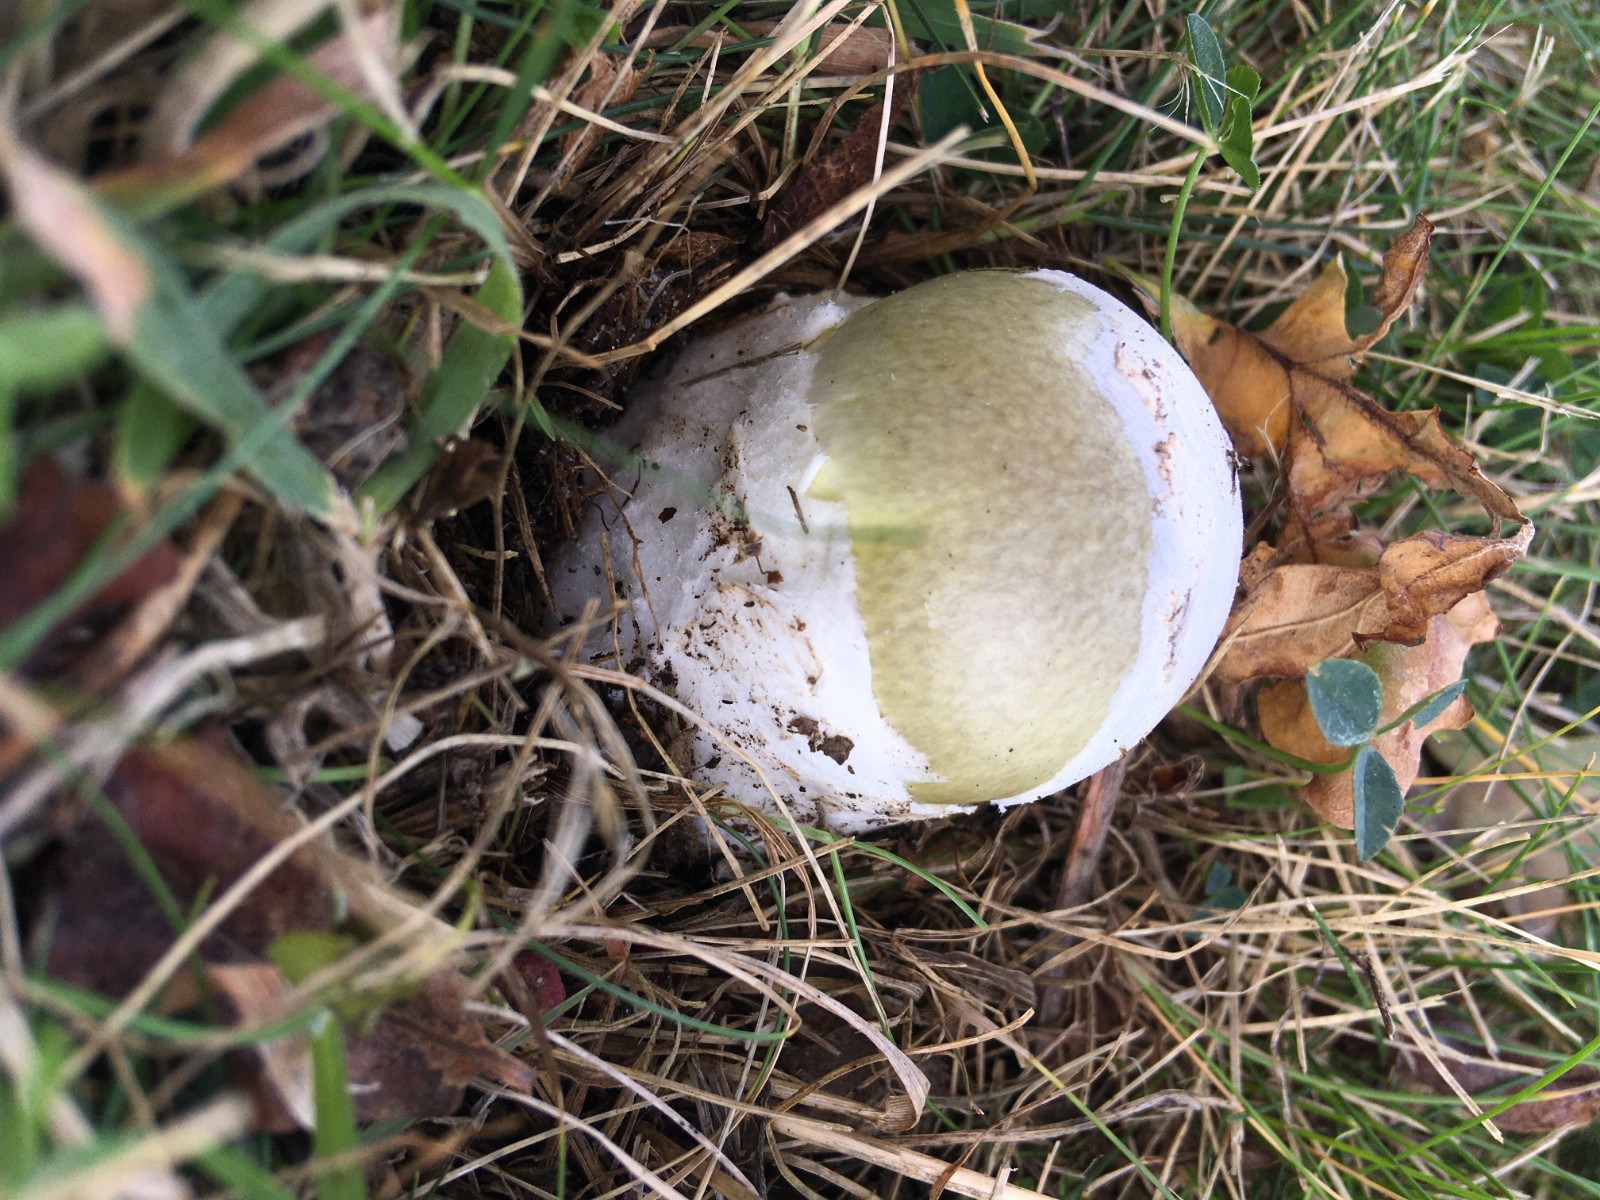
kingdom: Fungi
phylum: Basidiomycota
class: Agaricomycetes
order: Agaricales
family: Amanitaceae
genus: Amanita
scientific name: Amanita phalloides
